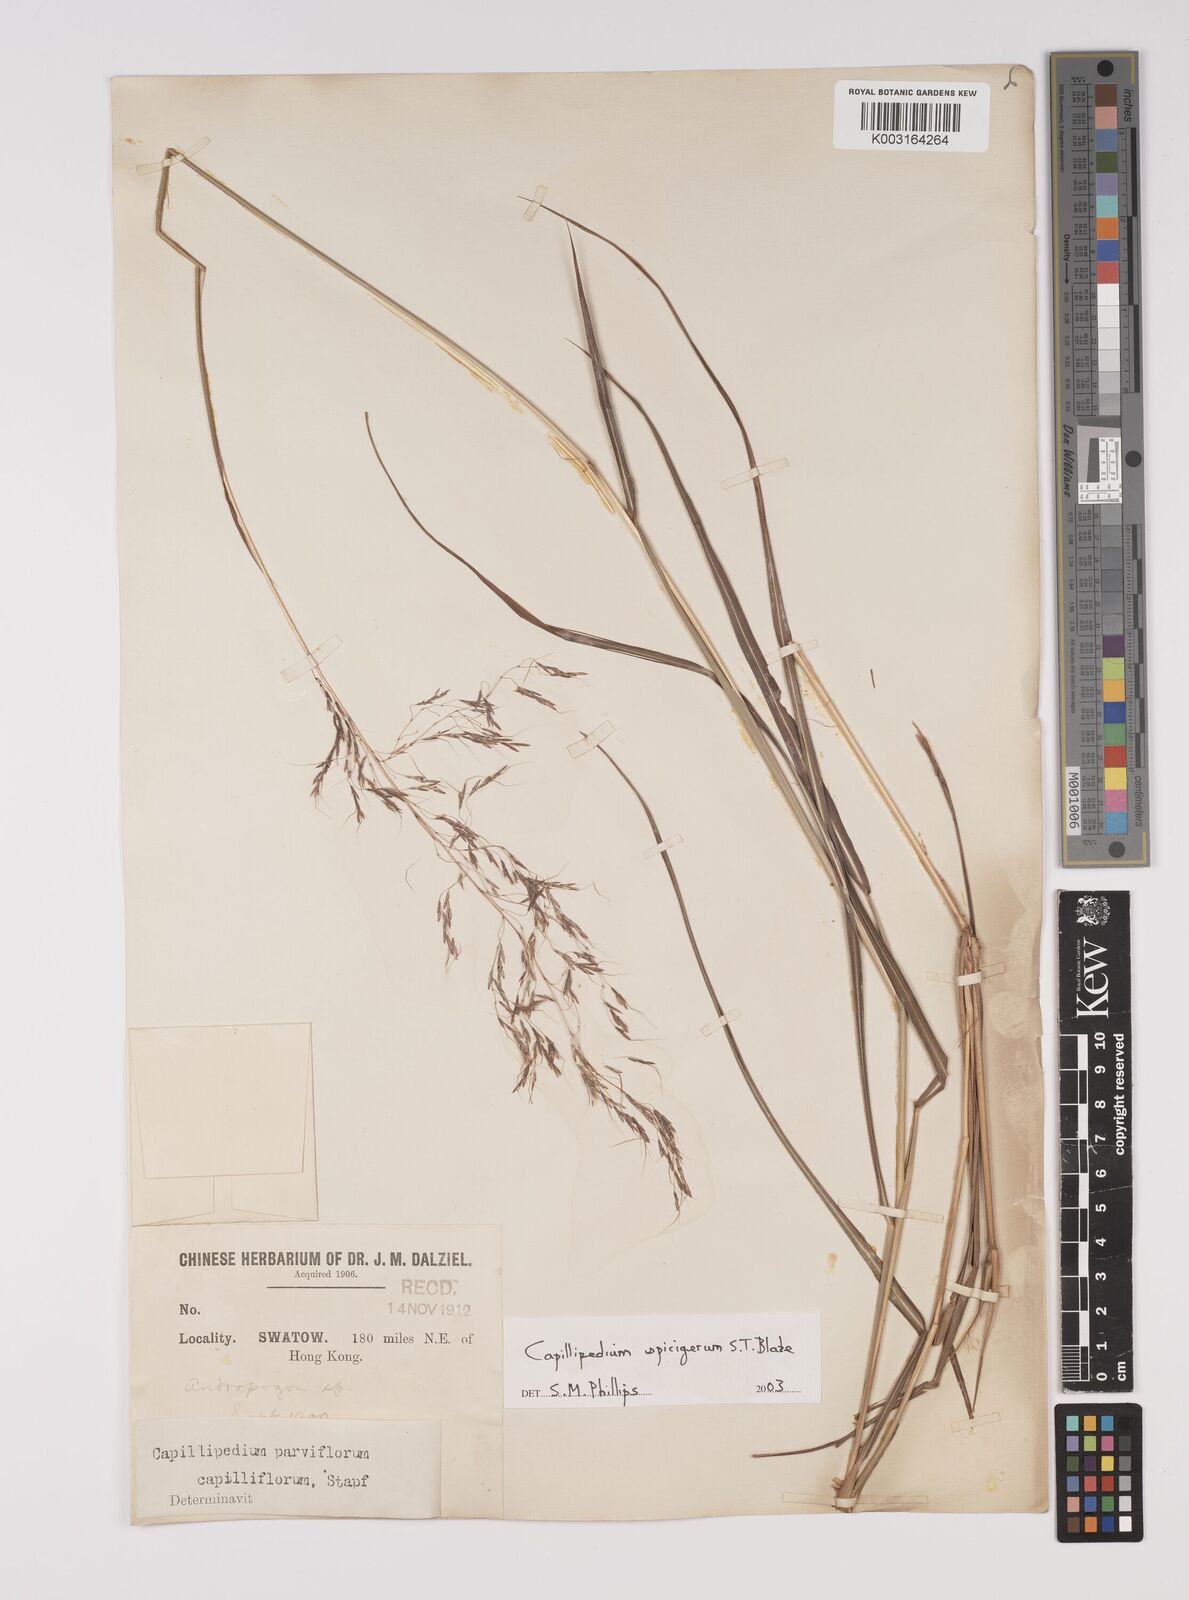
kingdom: Plantae
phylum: Tracheophyta
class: Liliopsida
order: Poales
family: Poaceae
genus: Capillipedium
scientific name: Capillipedium spicigerum
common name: Scented-top grass
